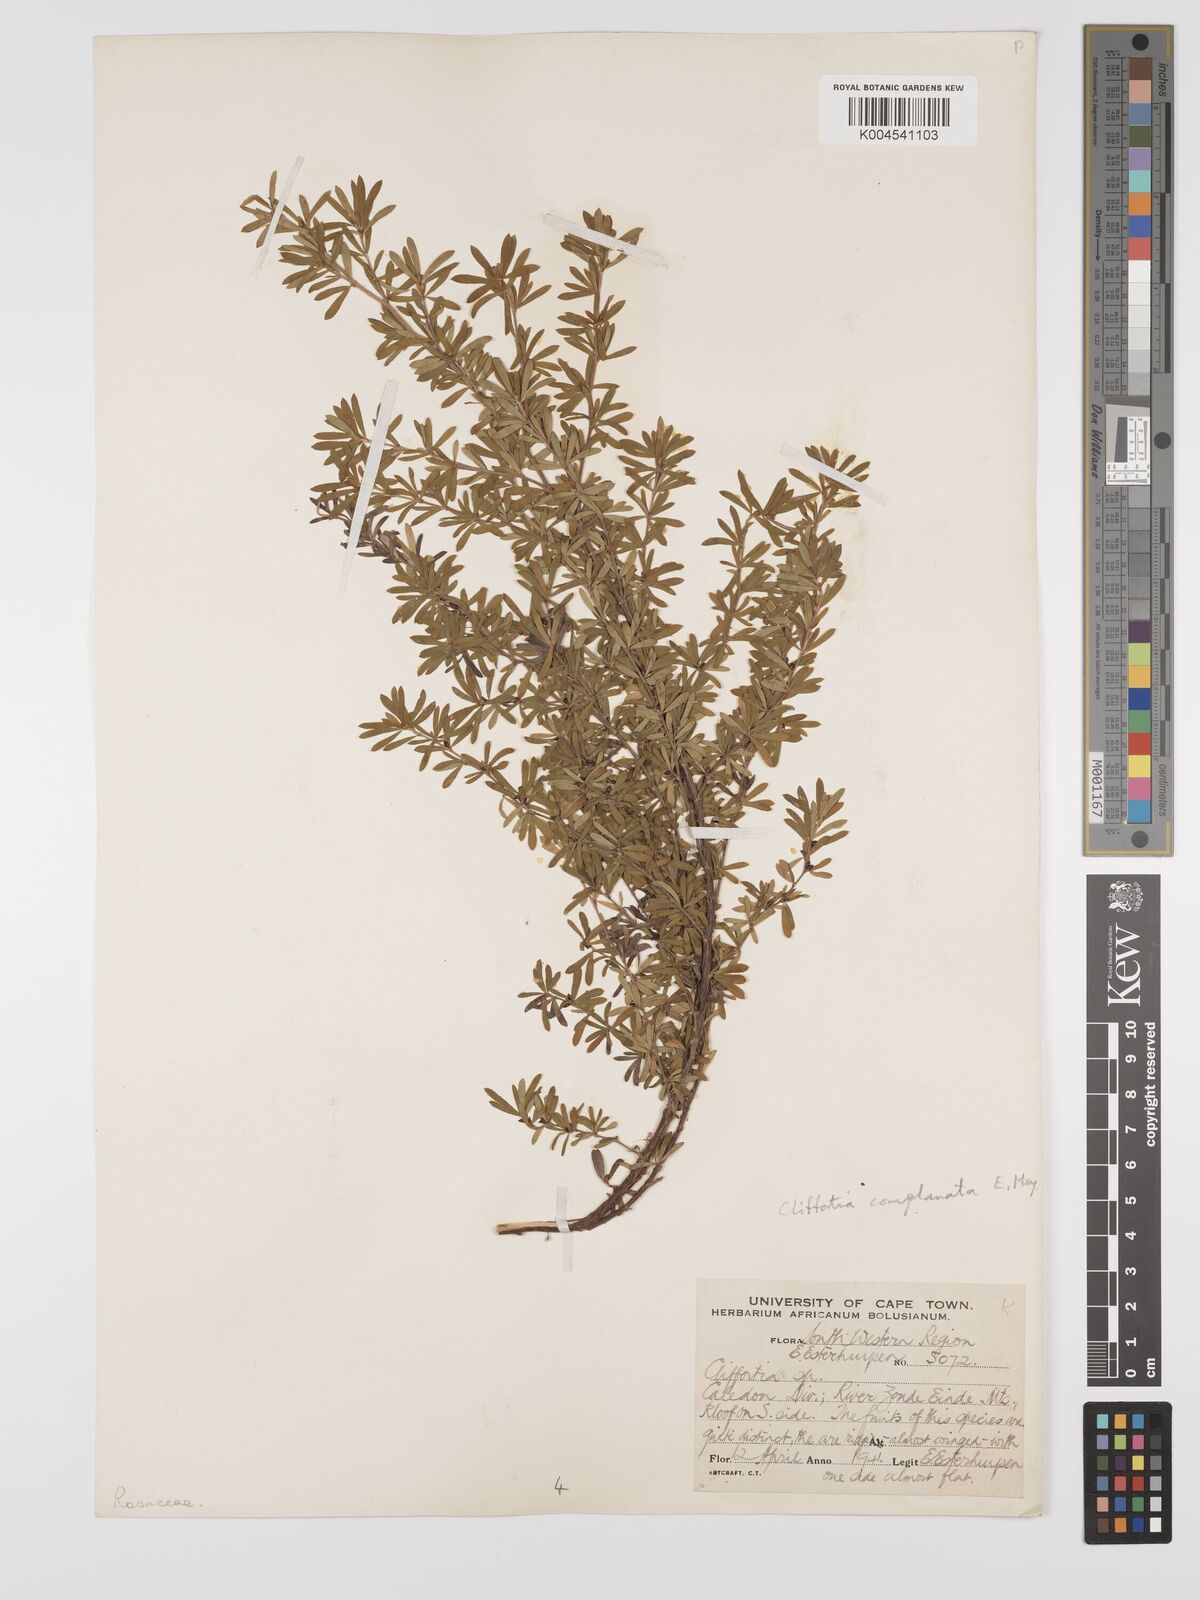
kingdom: Plantae
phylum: Tracheophyta
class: Magnoliopsida
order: Rosales
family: Rosaceae
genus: Cliffortia
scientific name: Cliffortia complanata
